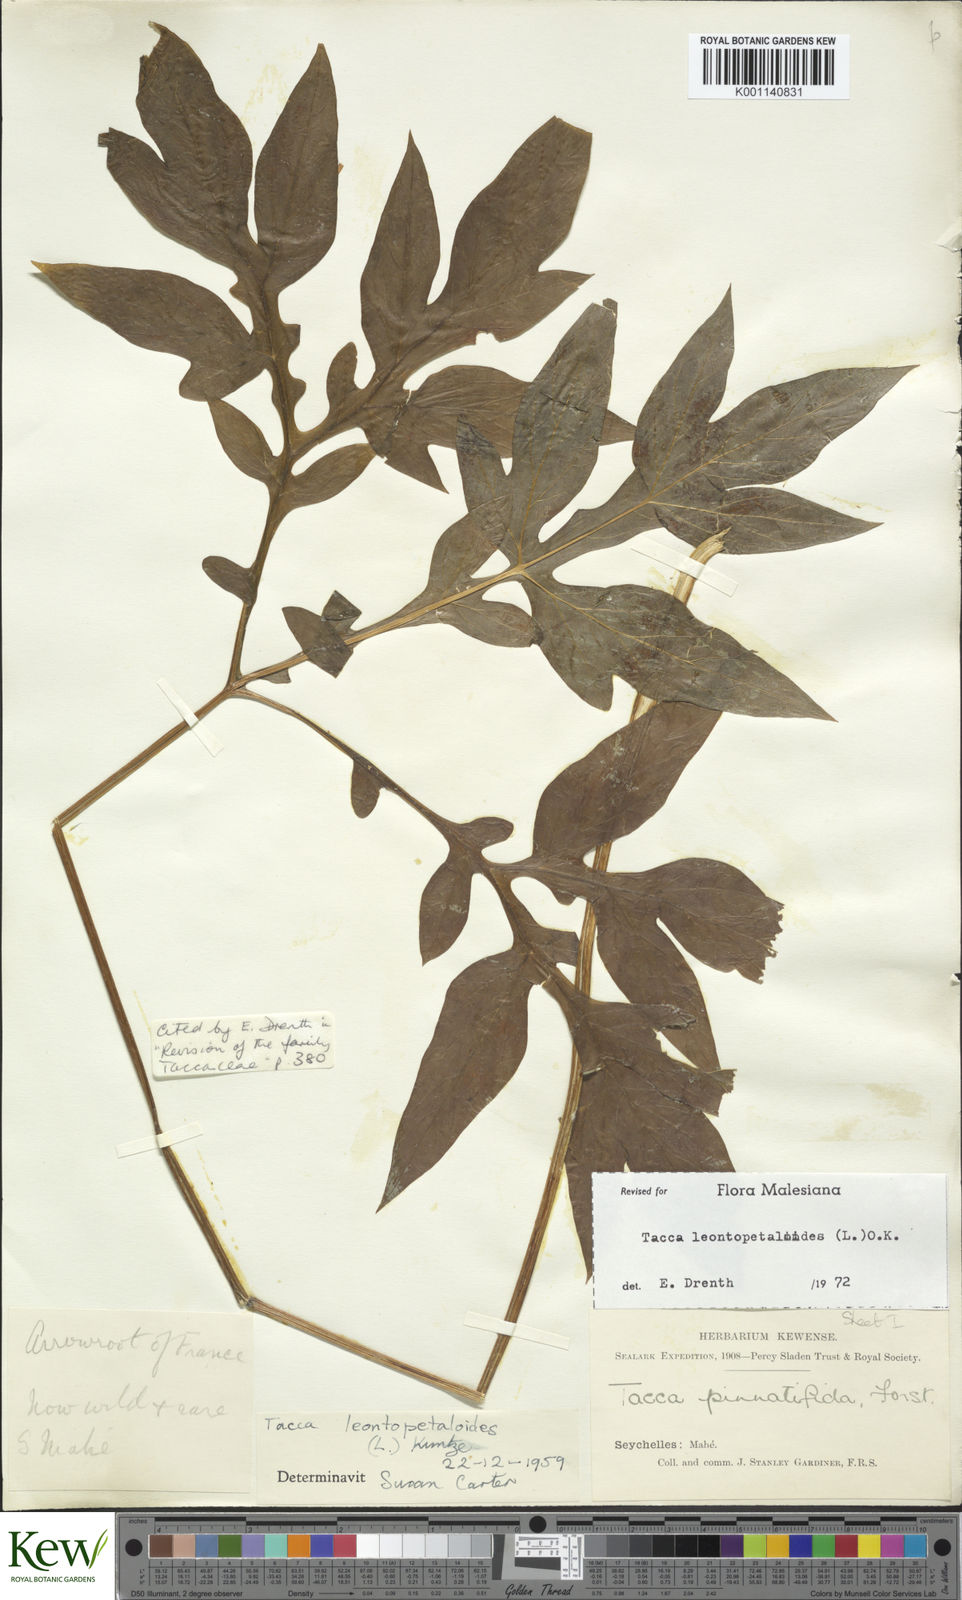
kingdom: Plantae
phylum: Tracheophyta
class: Liliopsida
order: Dioscoreales
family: Dioscoreaceae
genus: Tacca
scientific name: Tacca leontopetaloides
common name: Arrowroot
